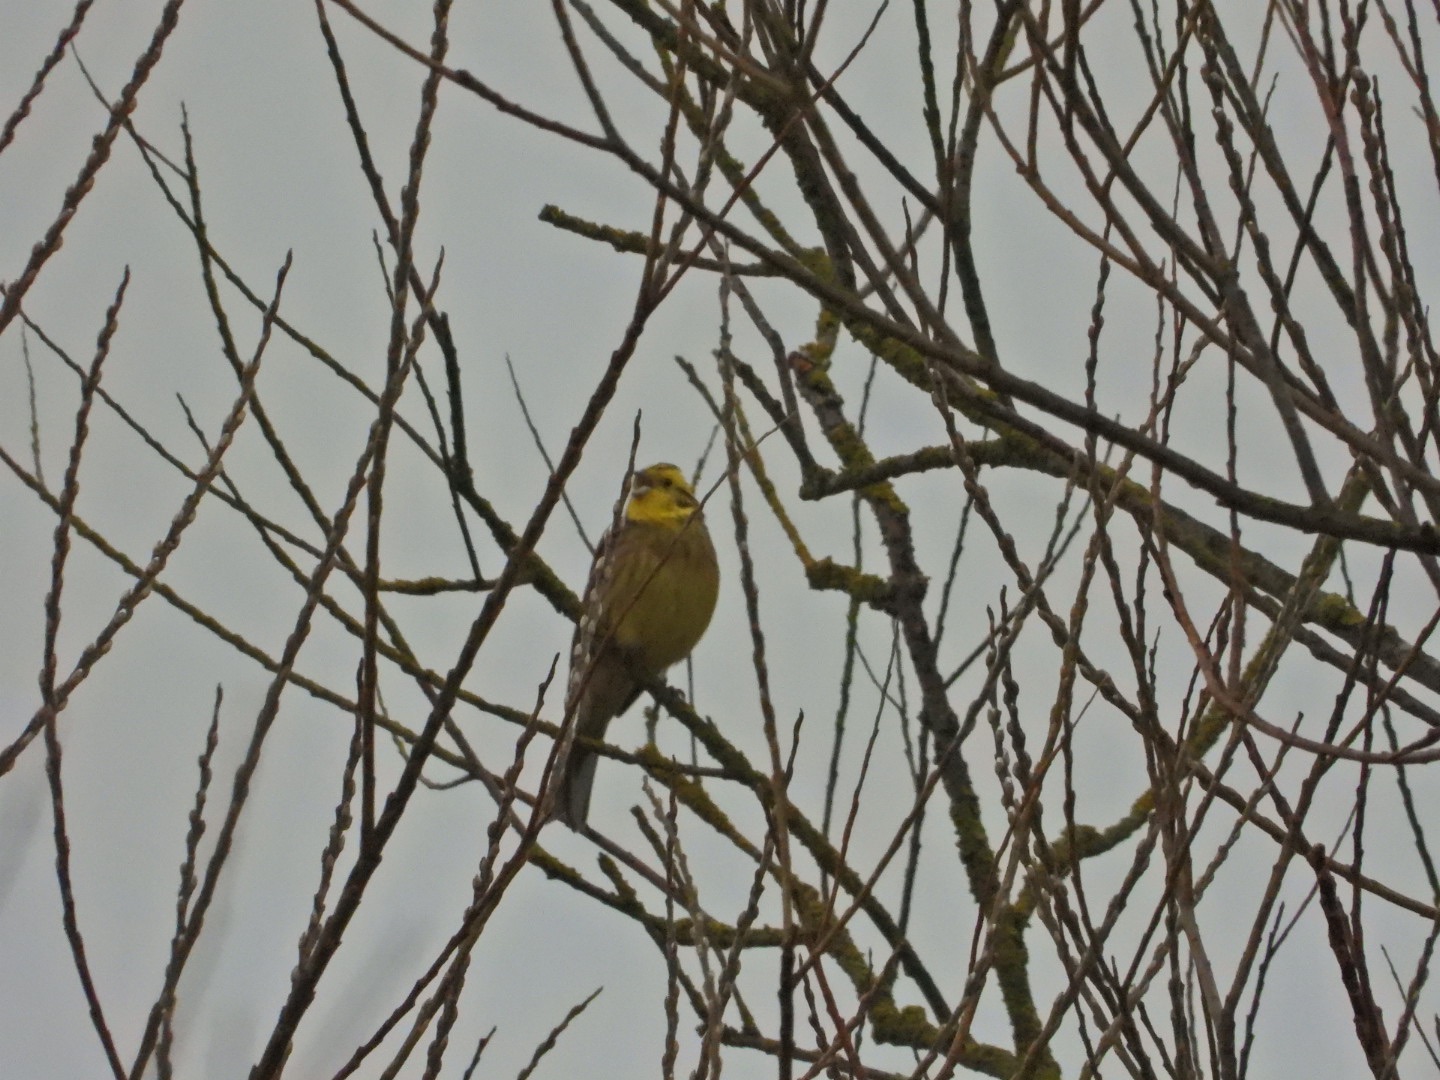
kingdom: Animalia
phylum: Chordata
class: Aves
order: Passeriformes
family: Emberizidae
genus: Emberiza
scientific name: Emberiza citrinella
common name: Gulspurv
